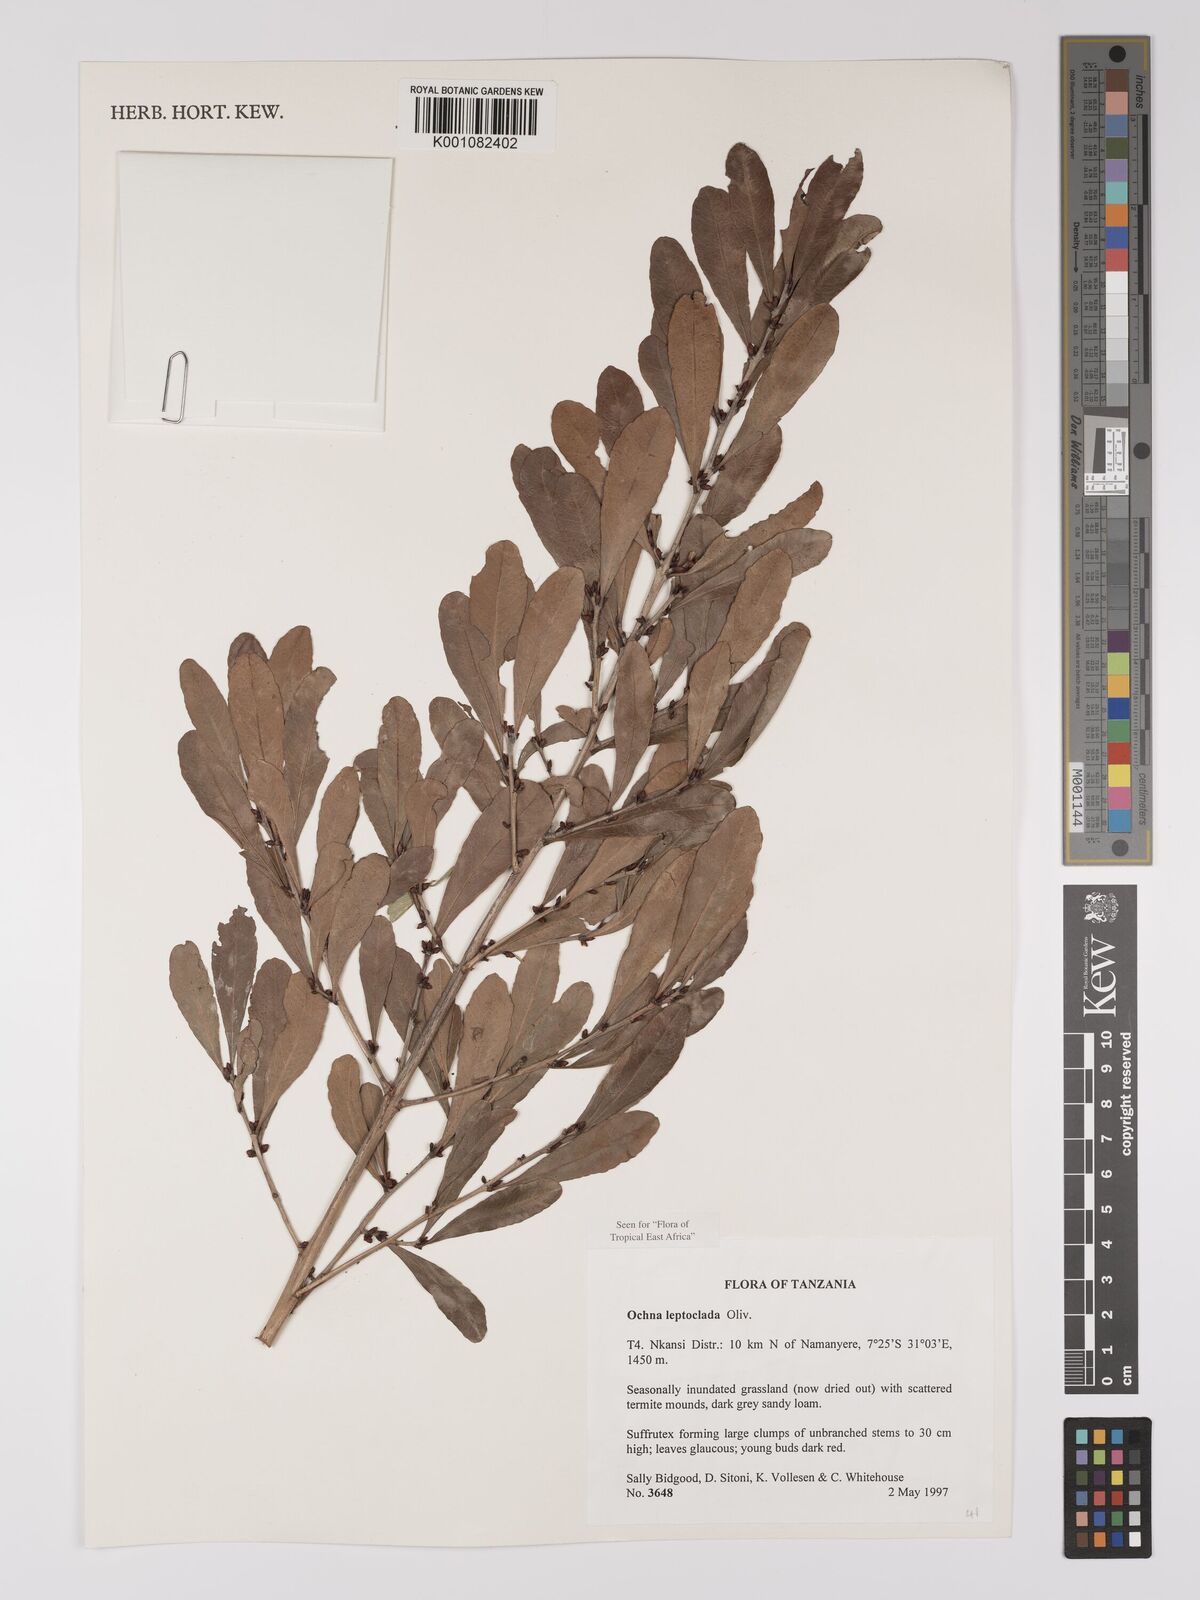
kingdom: Plantae
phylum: Tracheophyta
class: Magnoliopsida
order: Malpighiales
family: Ochnaceae
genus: Ochna
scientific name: Ochna leptoclada
